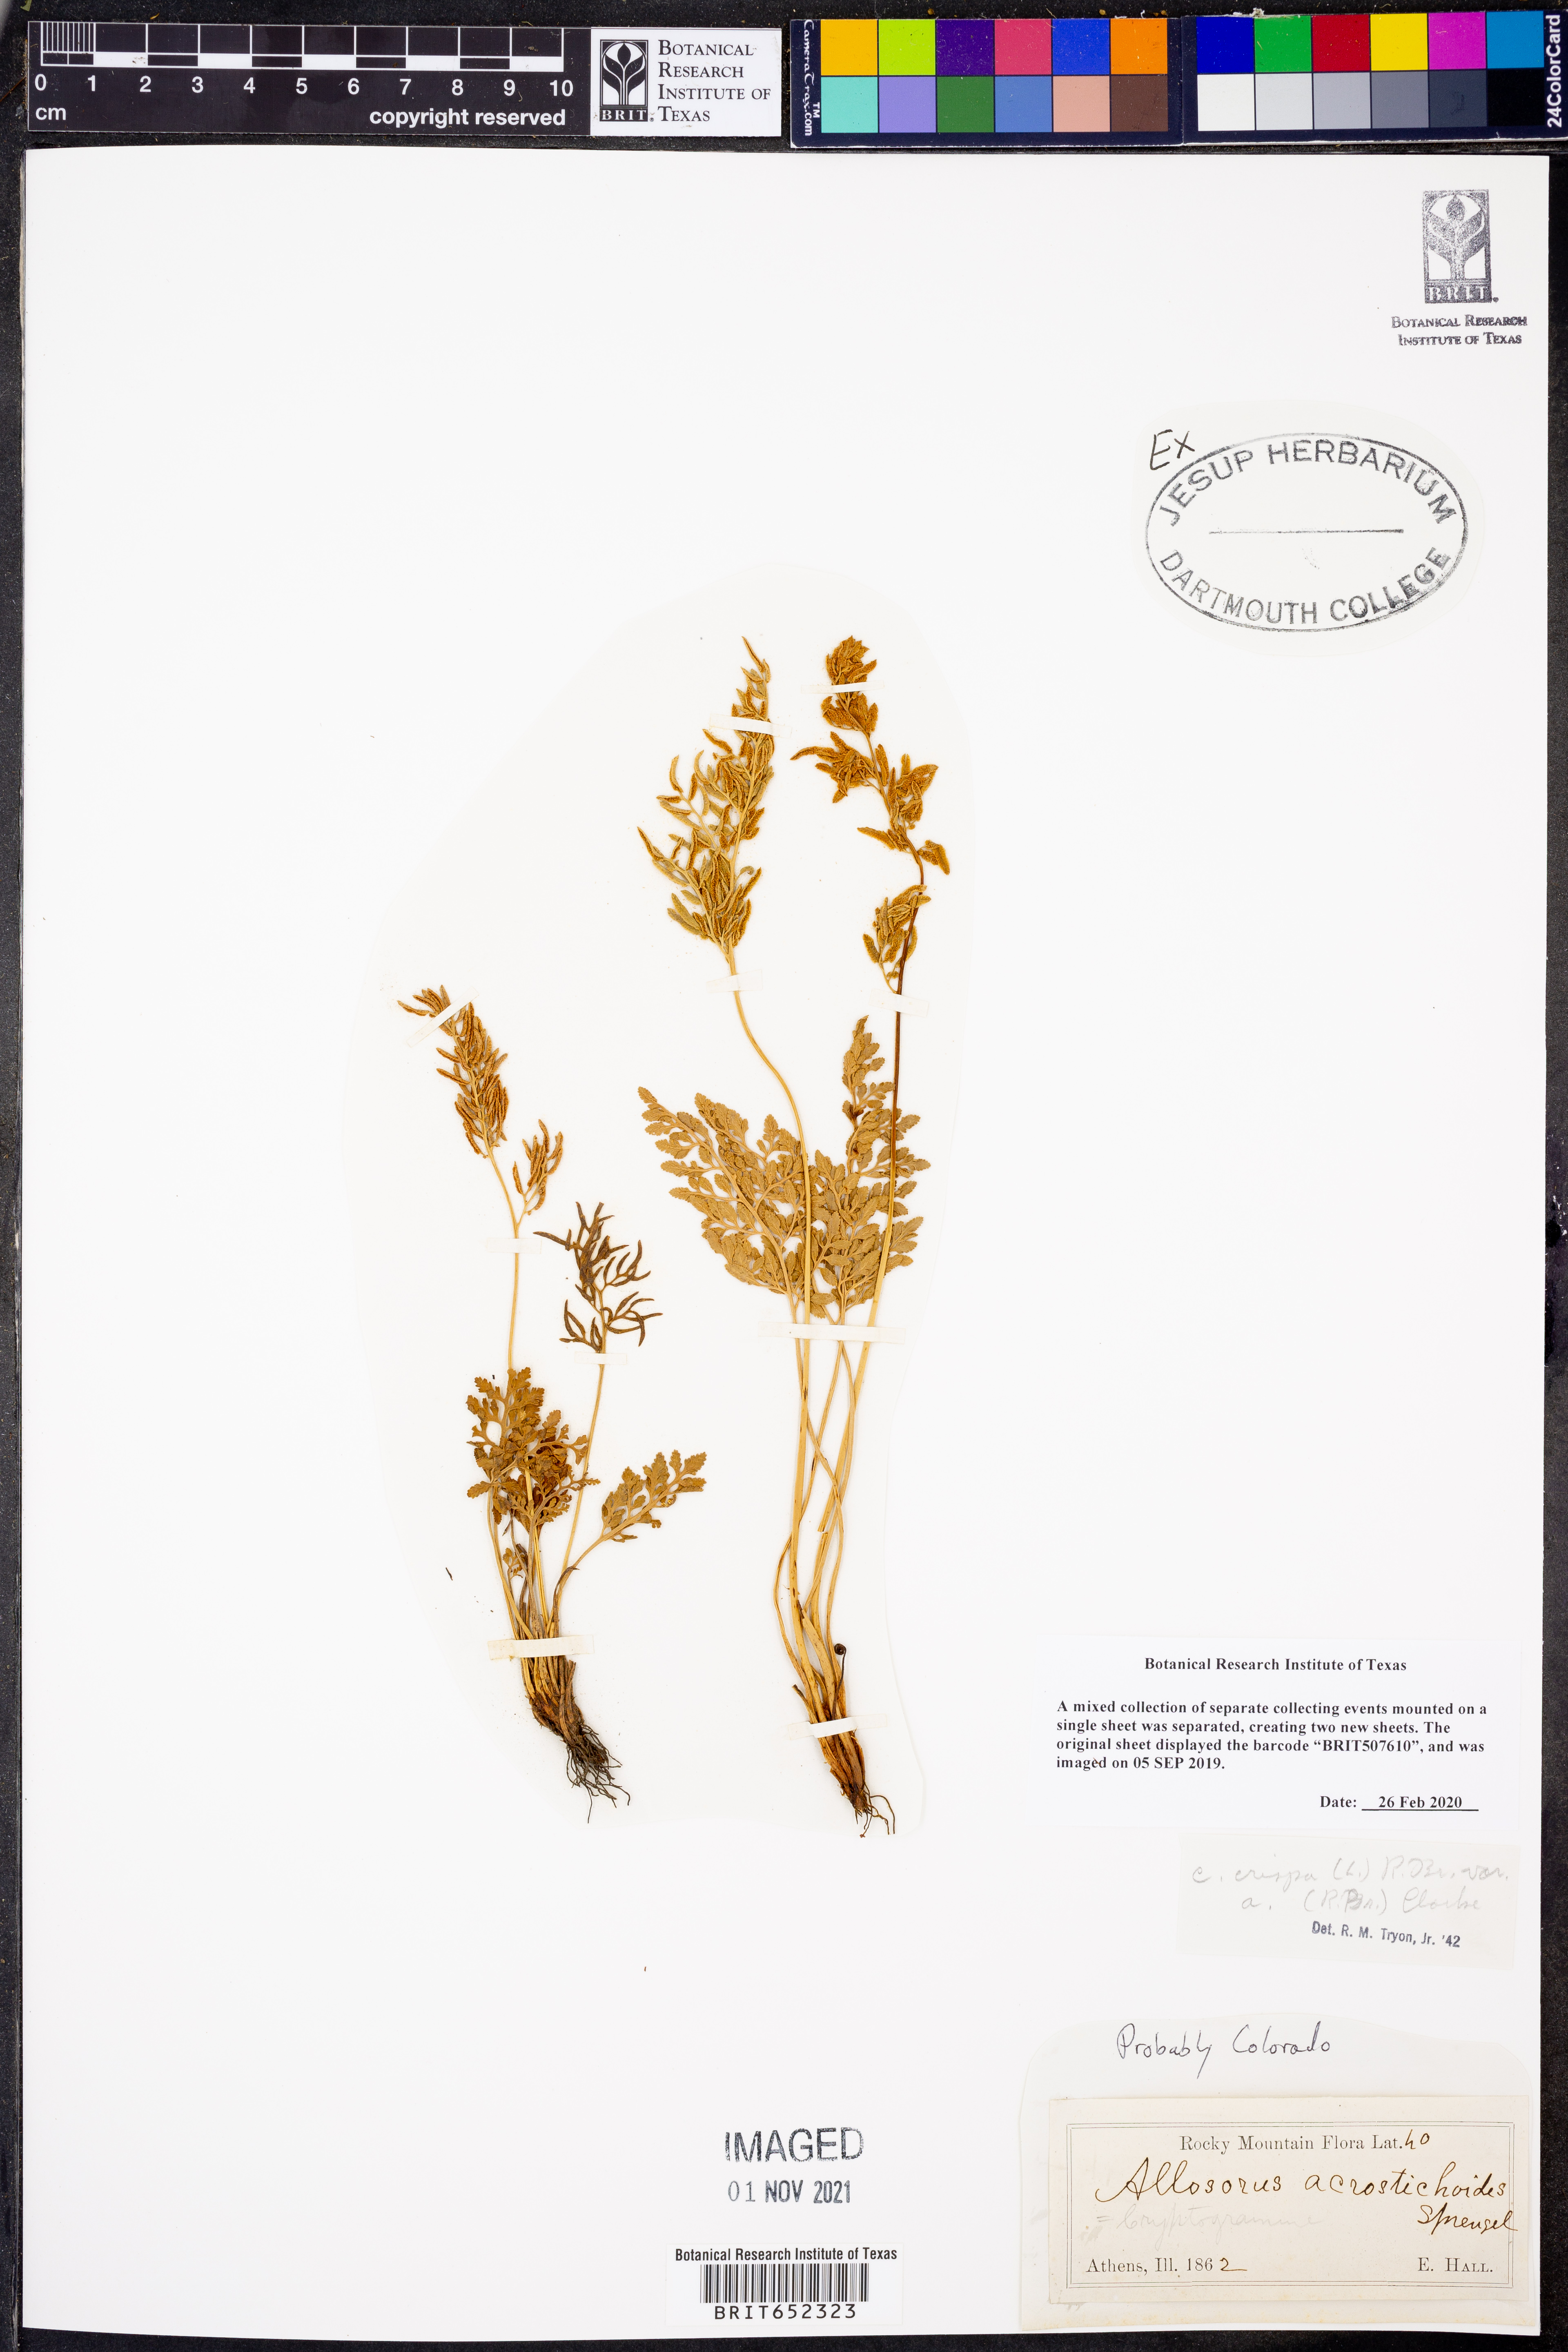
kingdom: Plantae
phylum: Tracheophyta
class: Polypodiopsida
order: Polypodiales
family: Pteridaceae
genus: Cryptogramma
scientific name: Cryptogramma acrostichoides
